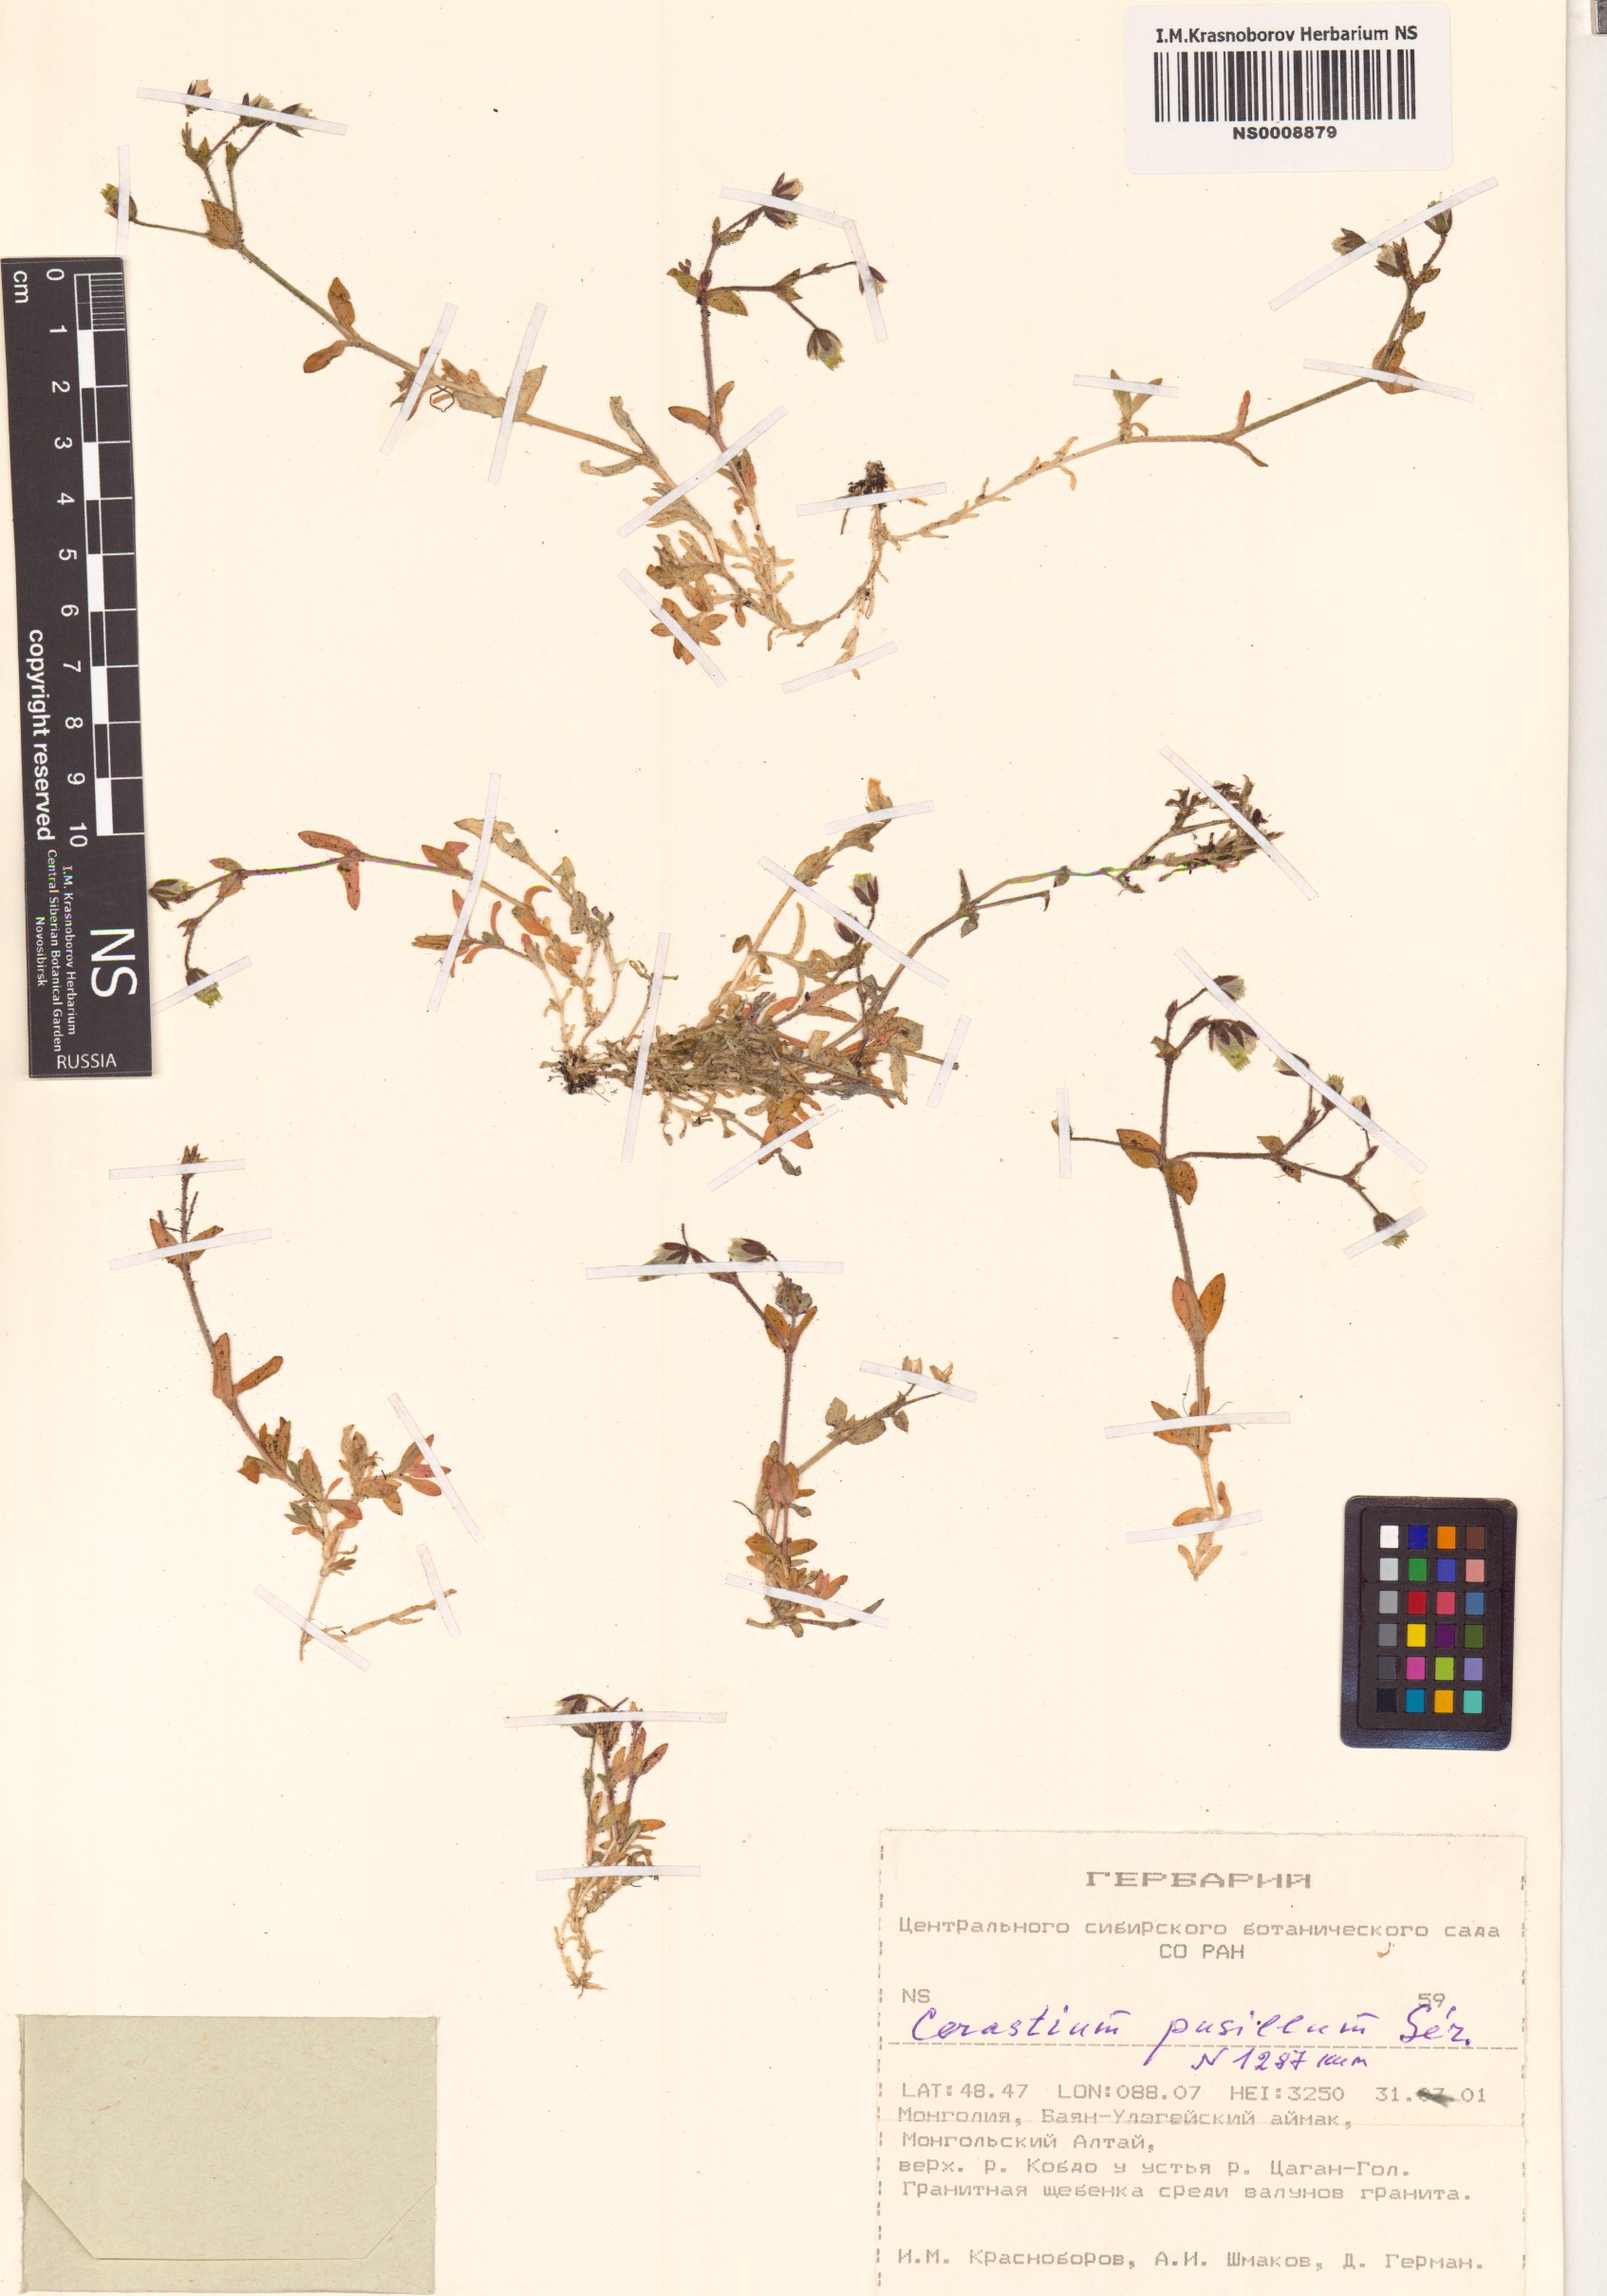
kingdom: Plantae
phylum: Tracheophyta
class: Magnoliopsida
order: Caryophyllales
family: Caryophyllaceae
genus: Cerastium
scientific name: Cerastium pusillum
